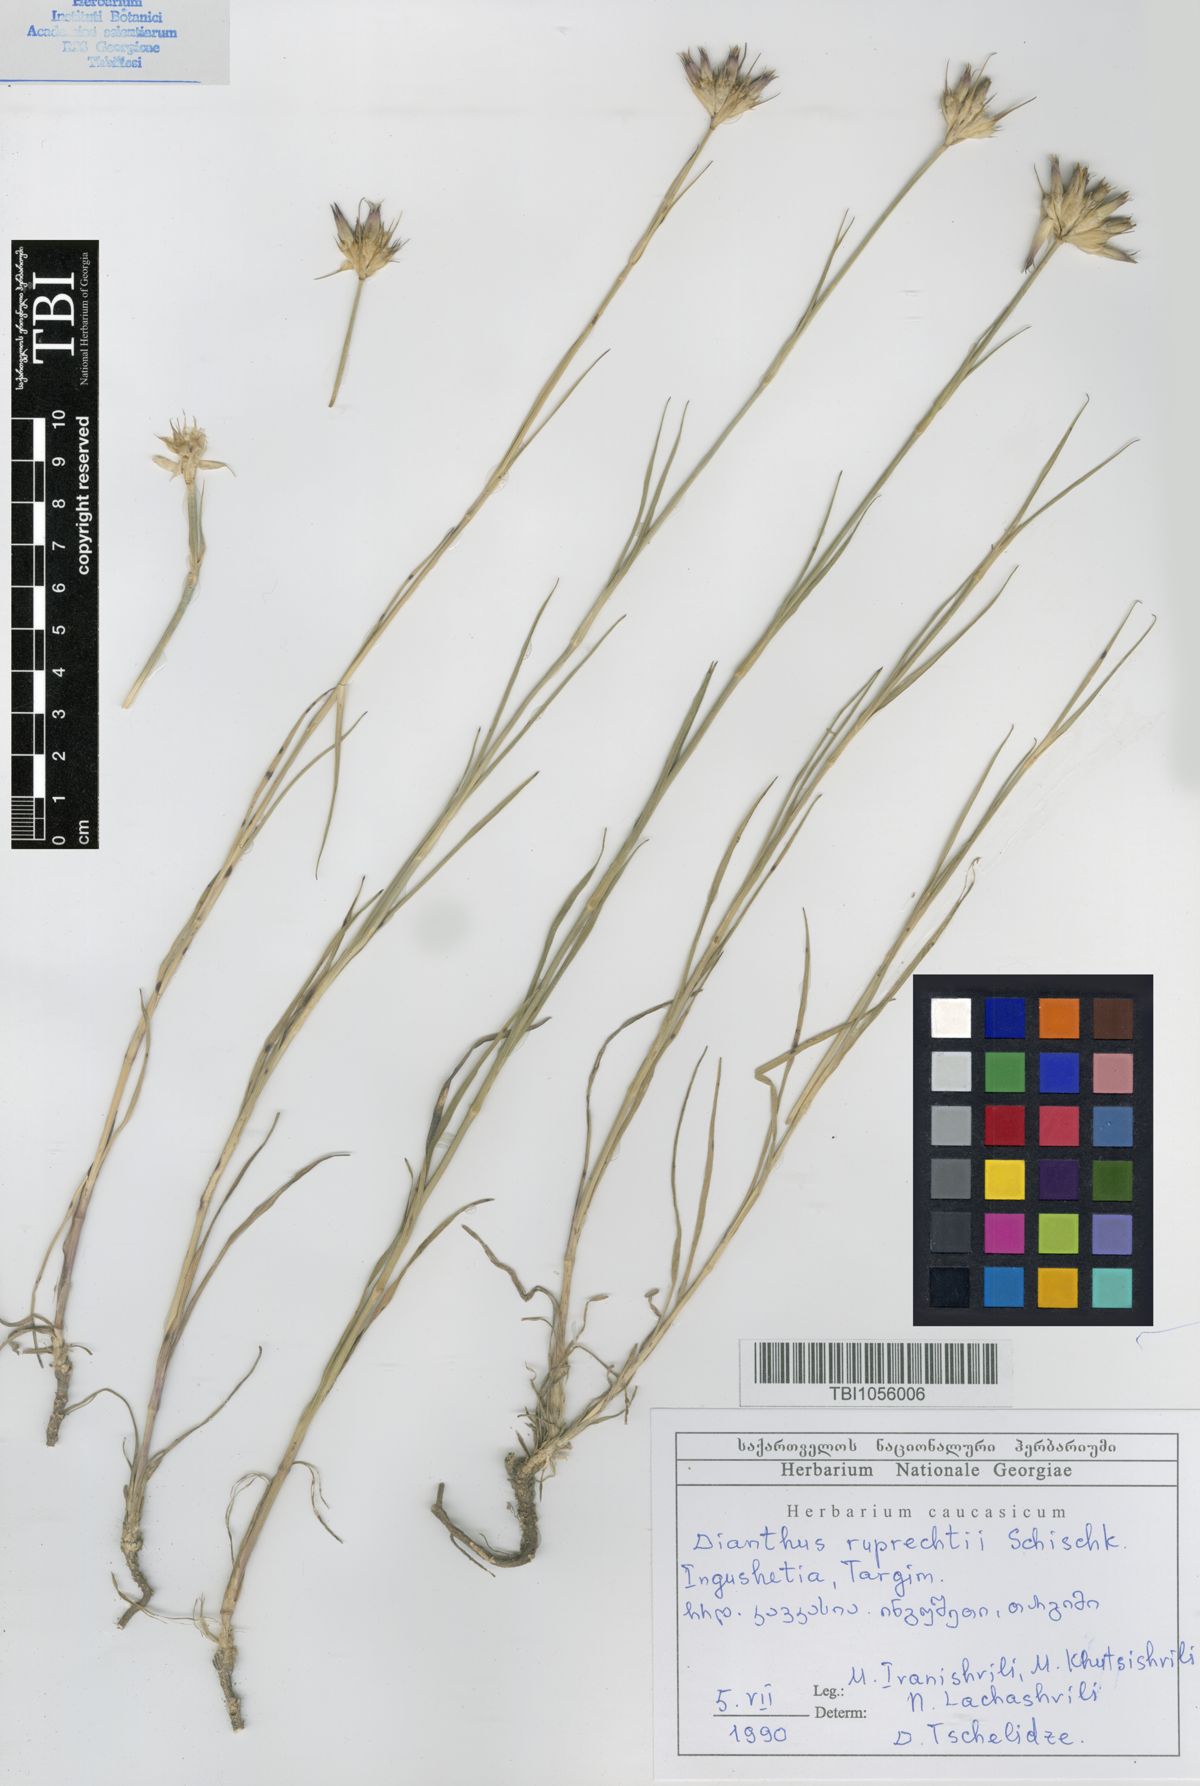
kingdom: Plantae
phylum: Tracheophyta
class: Magnoliopsida
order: Caryophyllales
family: Caryophyllaceae
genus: Dianthus
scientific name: Dianthus ruprechtii
